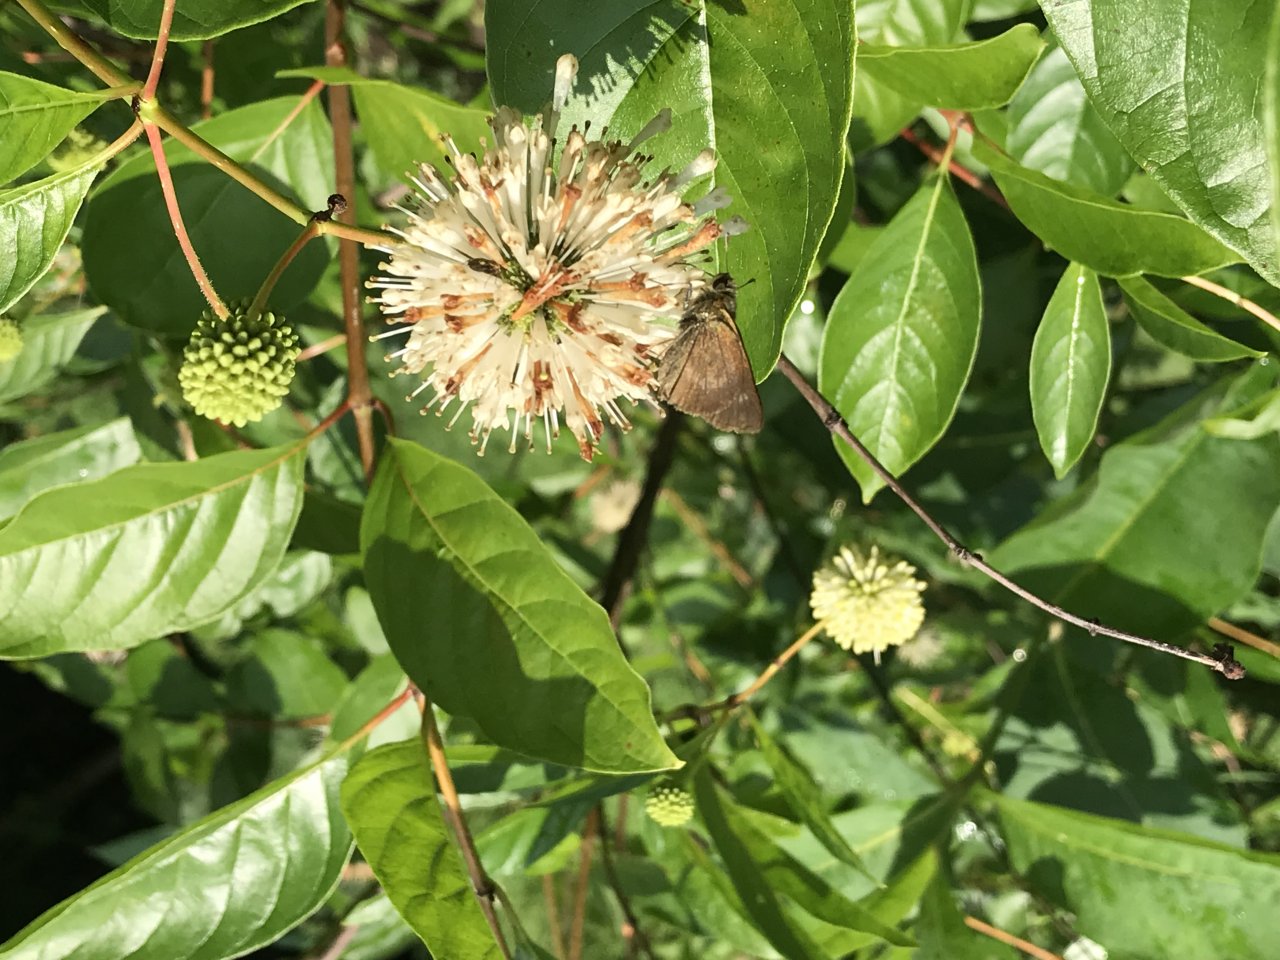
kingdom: Animalia
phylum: Arthropoda
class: Insecta
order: Lepidoptera
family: Hesperiidae
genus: Polites
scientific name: Polites egeremet
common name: Northern Broken-Dash
